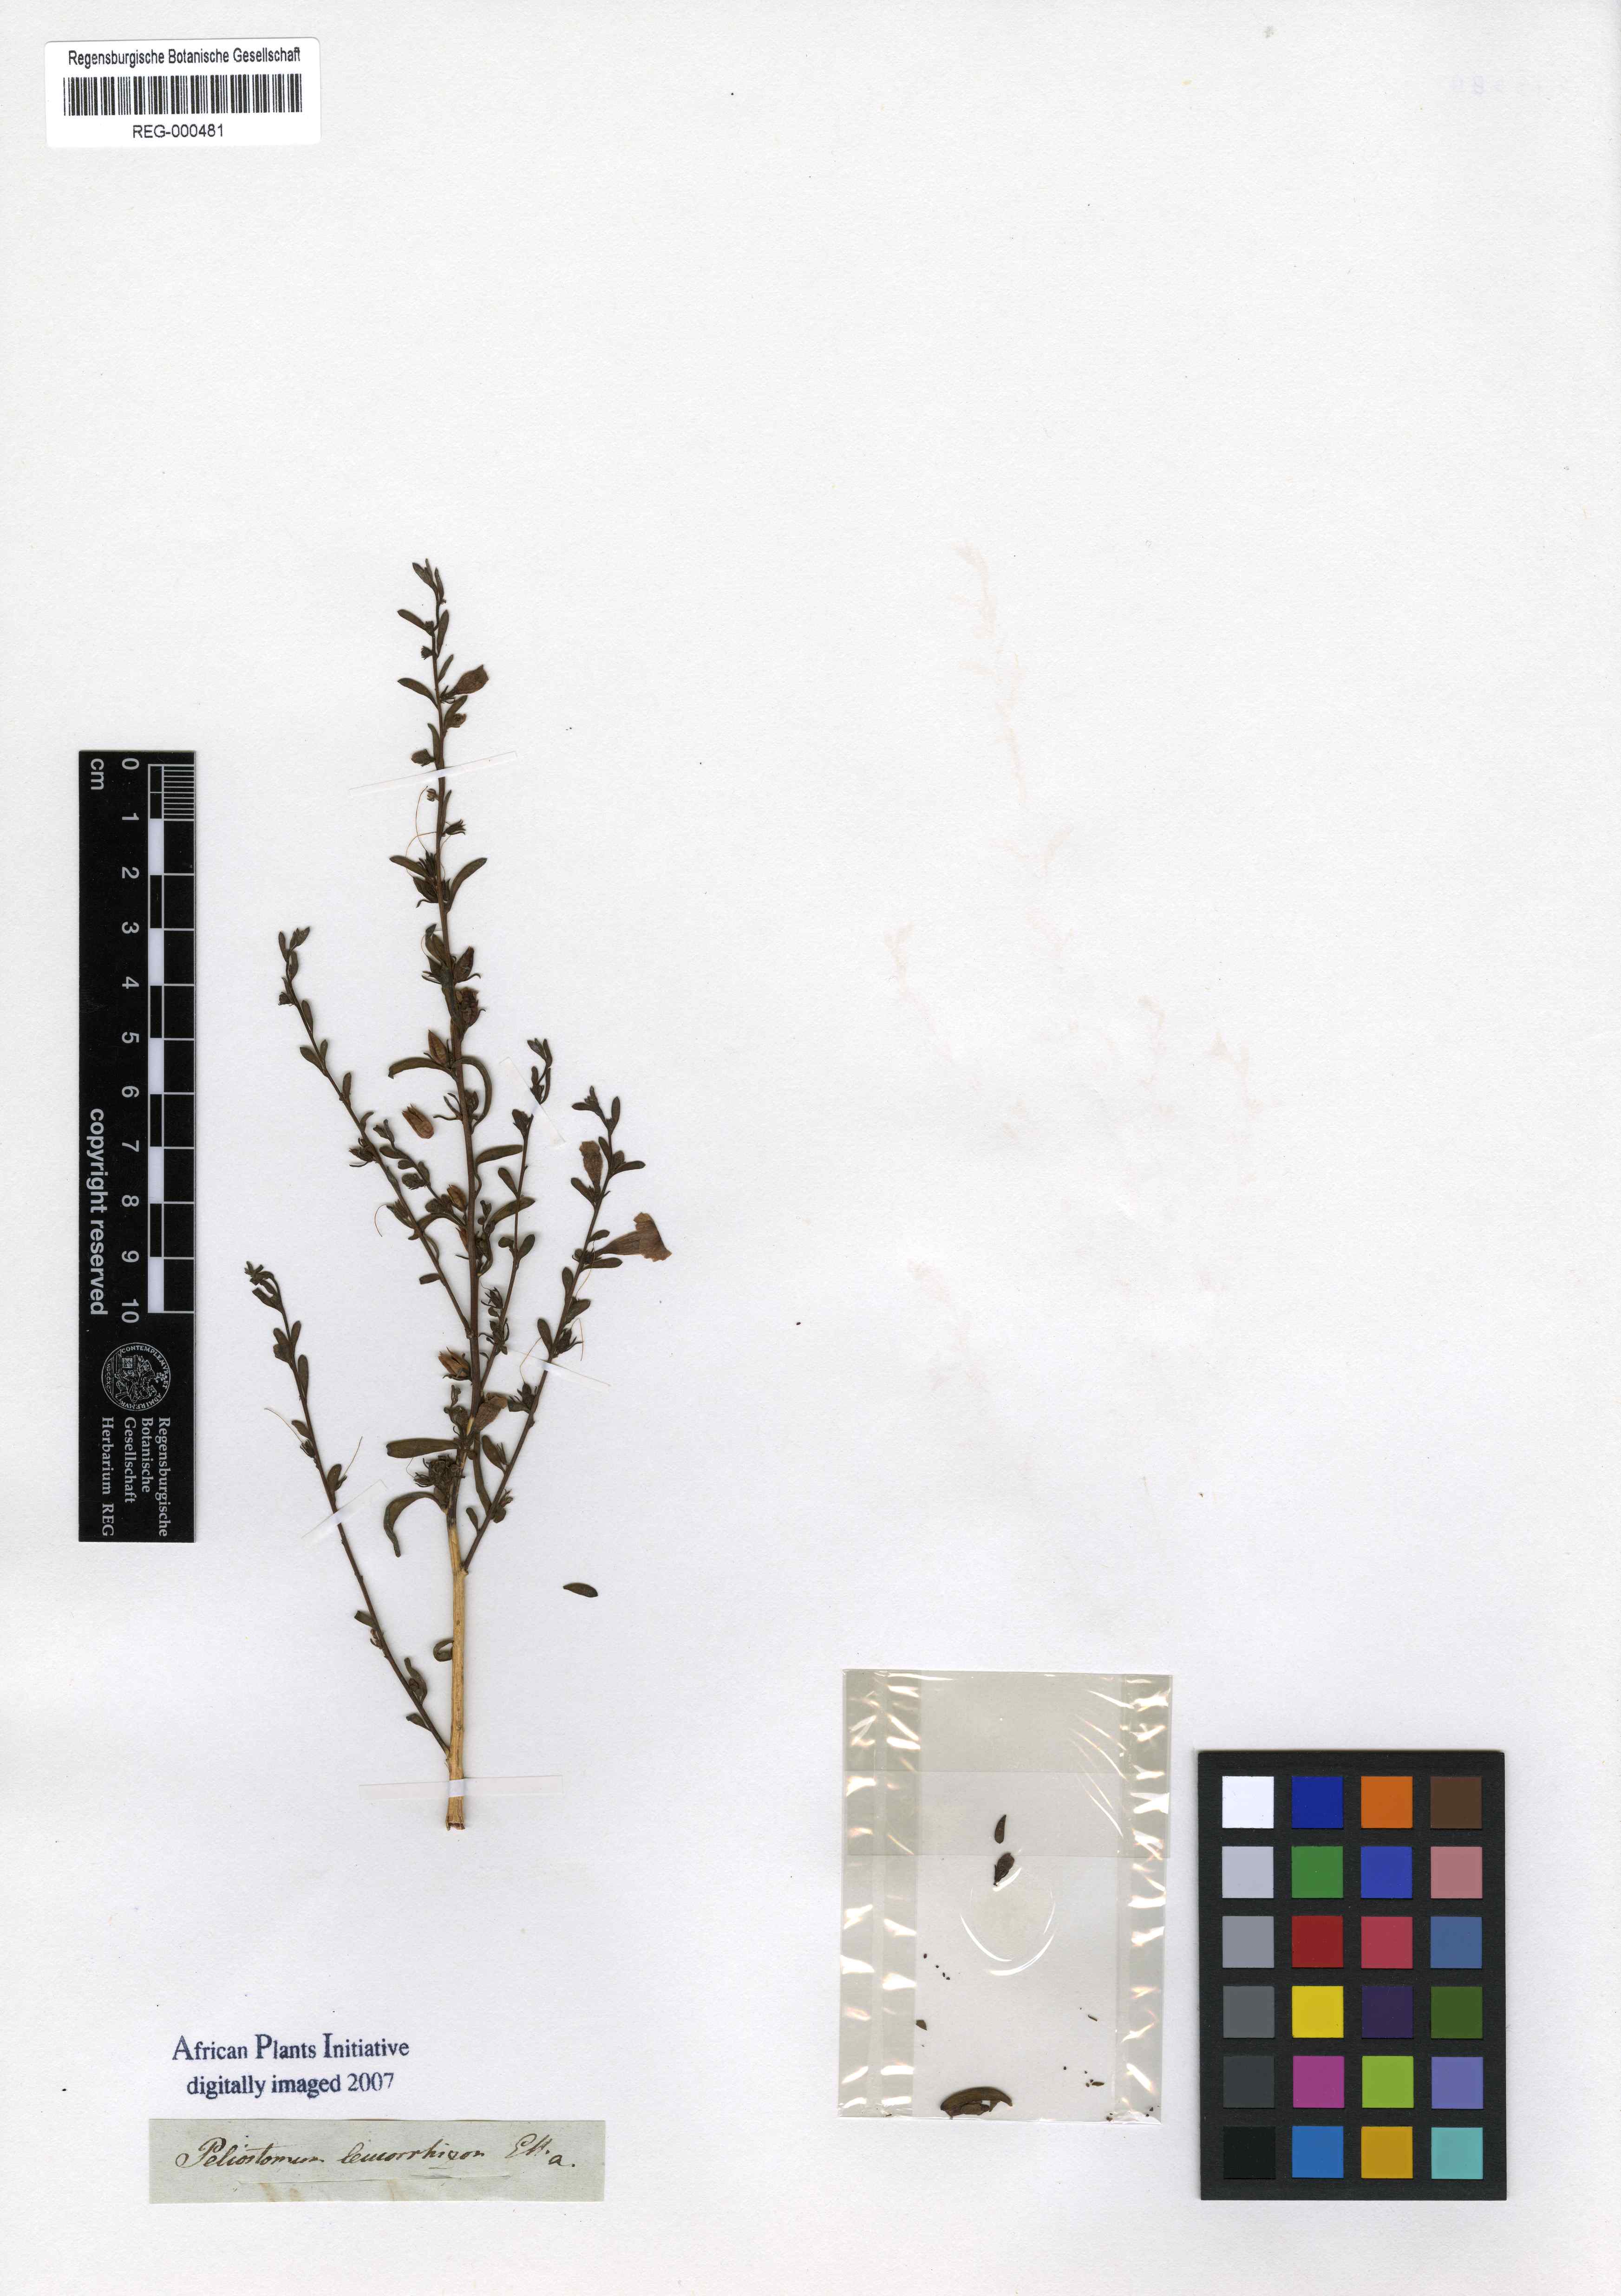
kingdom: Plantae
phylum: Tracheophyta
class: Magnoliopsida
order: Lamiales
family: Scrophulariaceae
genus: Peliostomum
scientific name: Peliostomum leucorrhizum
